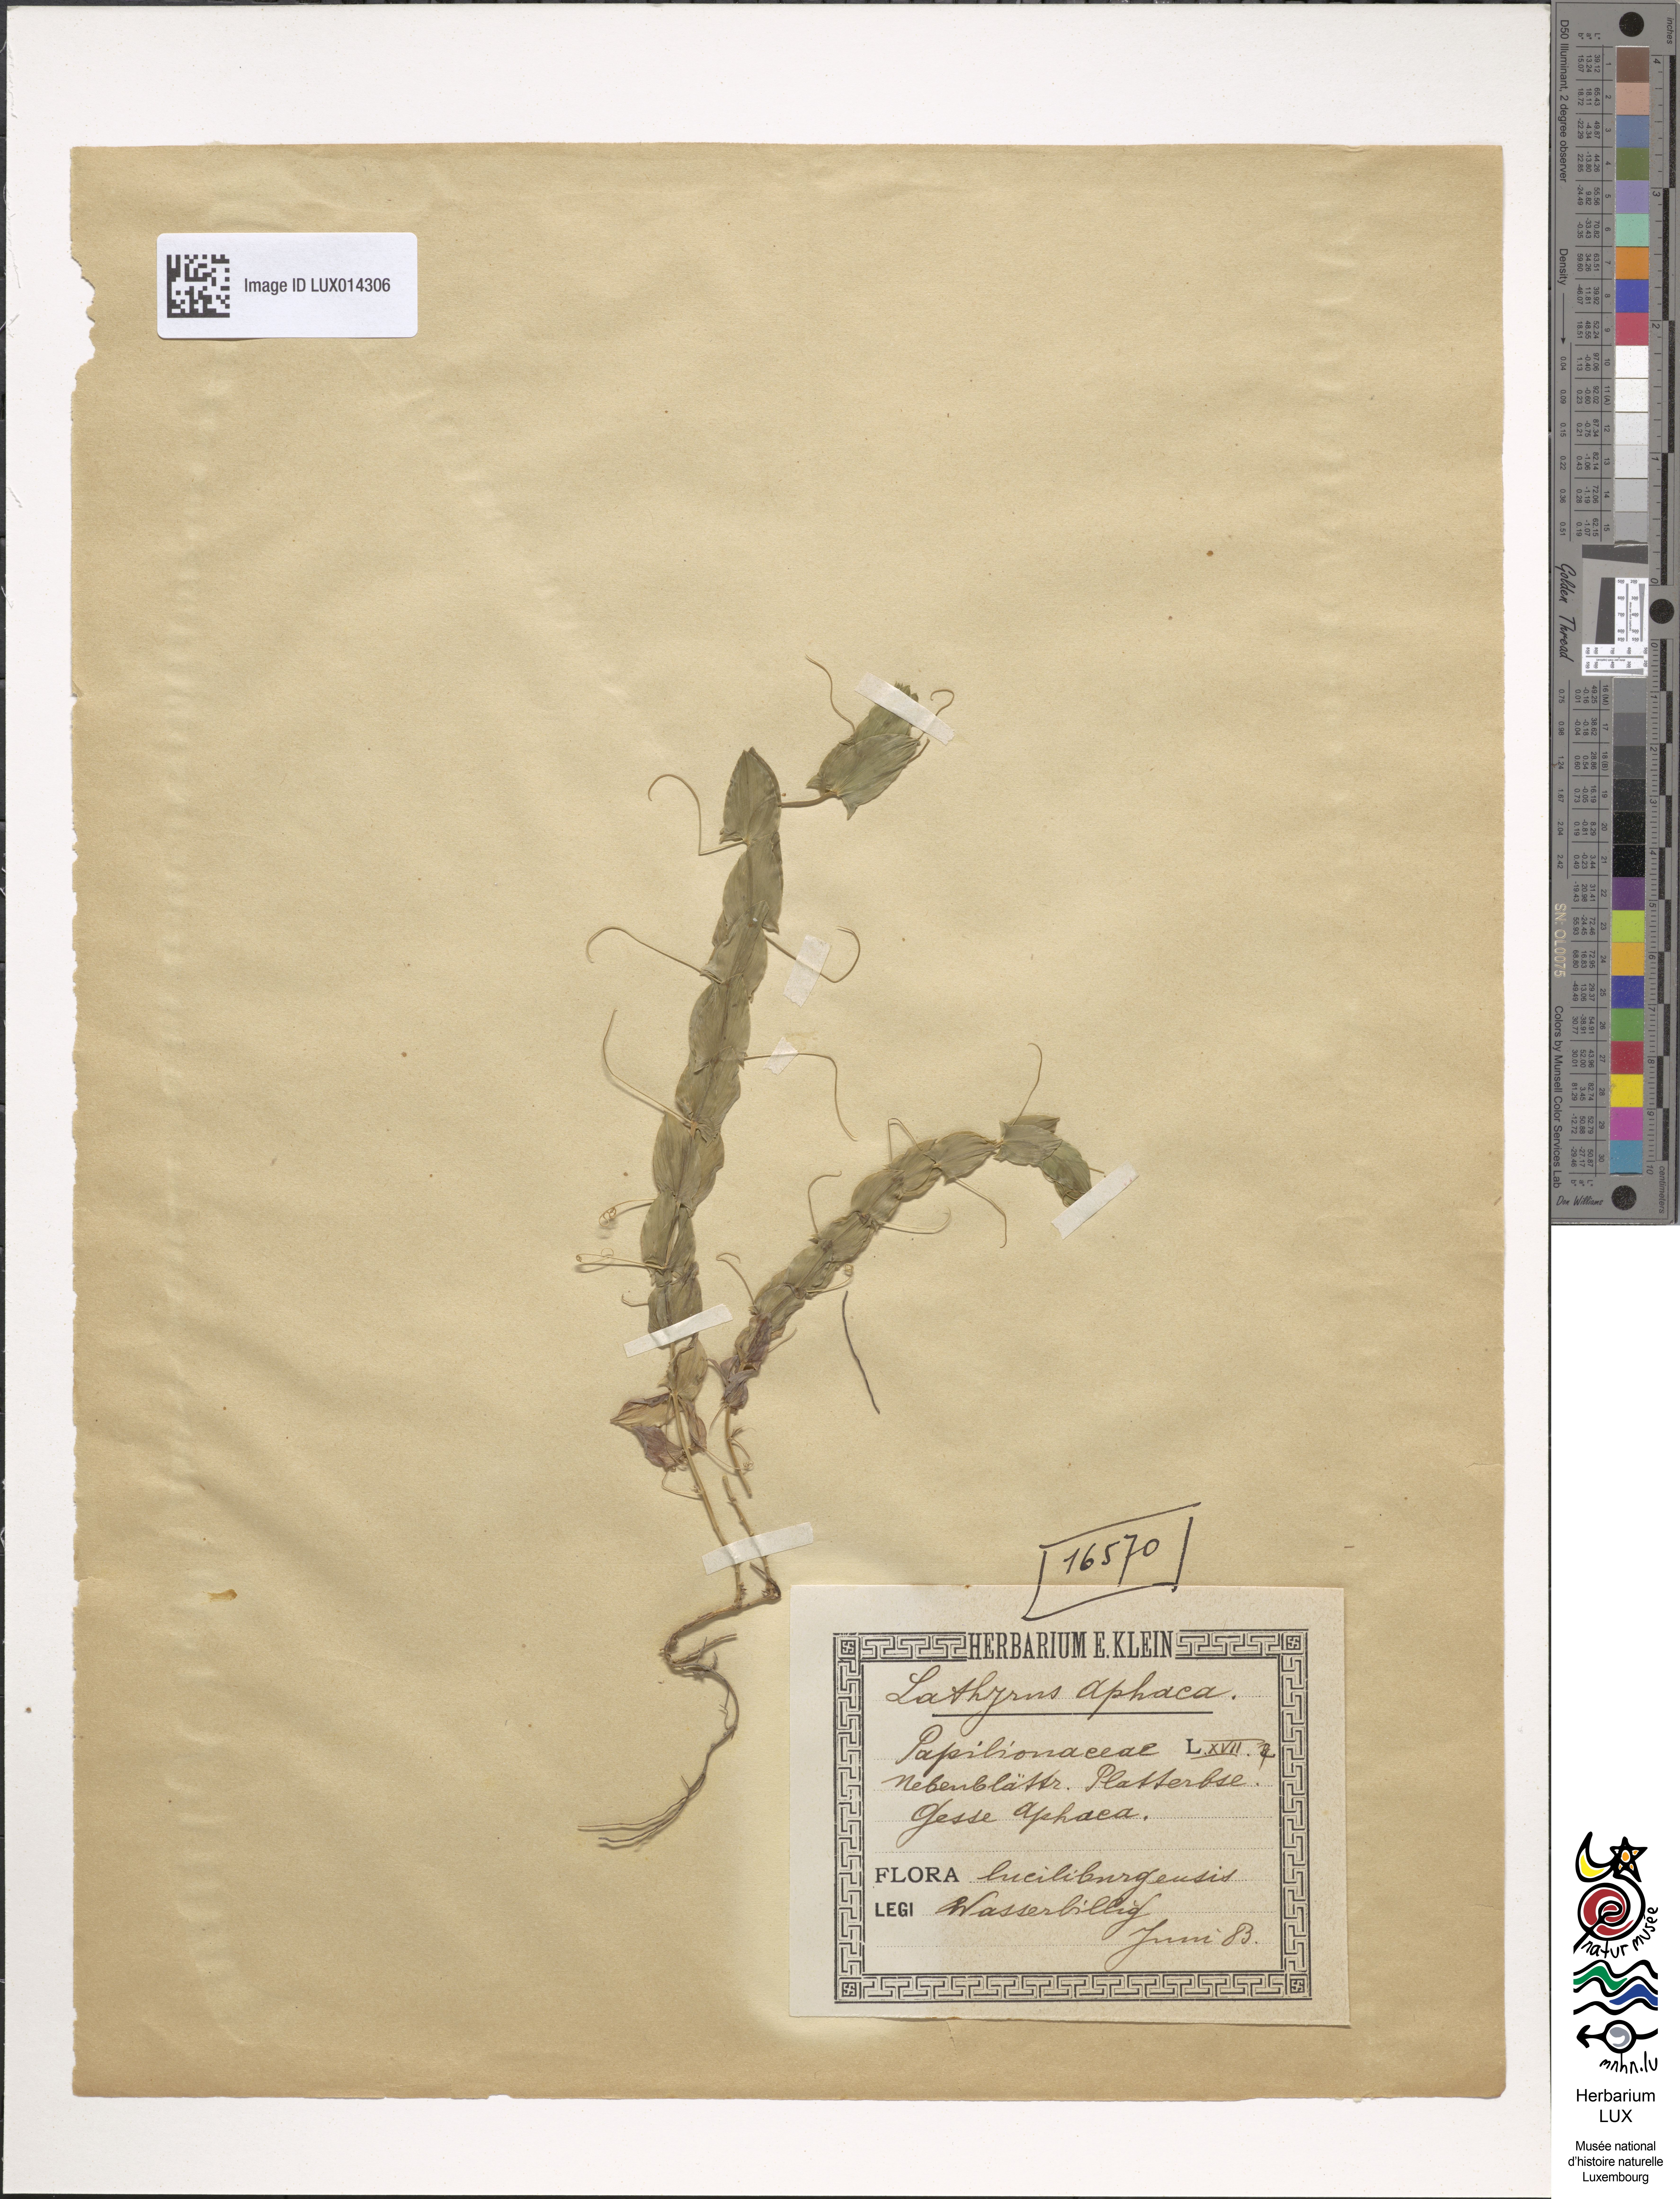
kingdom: Plantae
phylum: Tracheophyta
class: Magnoliopsida
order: Fabales
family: Fabaceae
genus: Lathyrus
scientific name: Lathyrus aphaca
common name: Yellow vetchling
